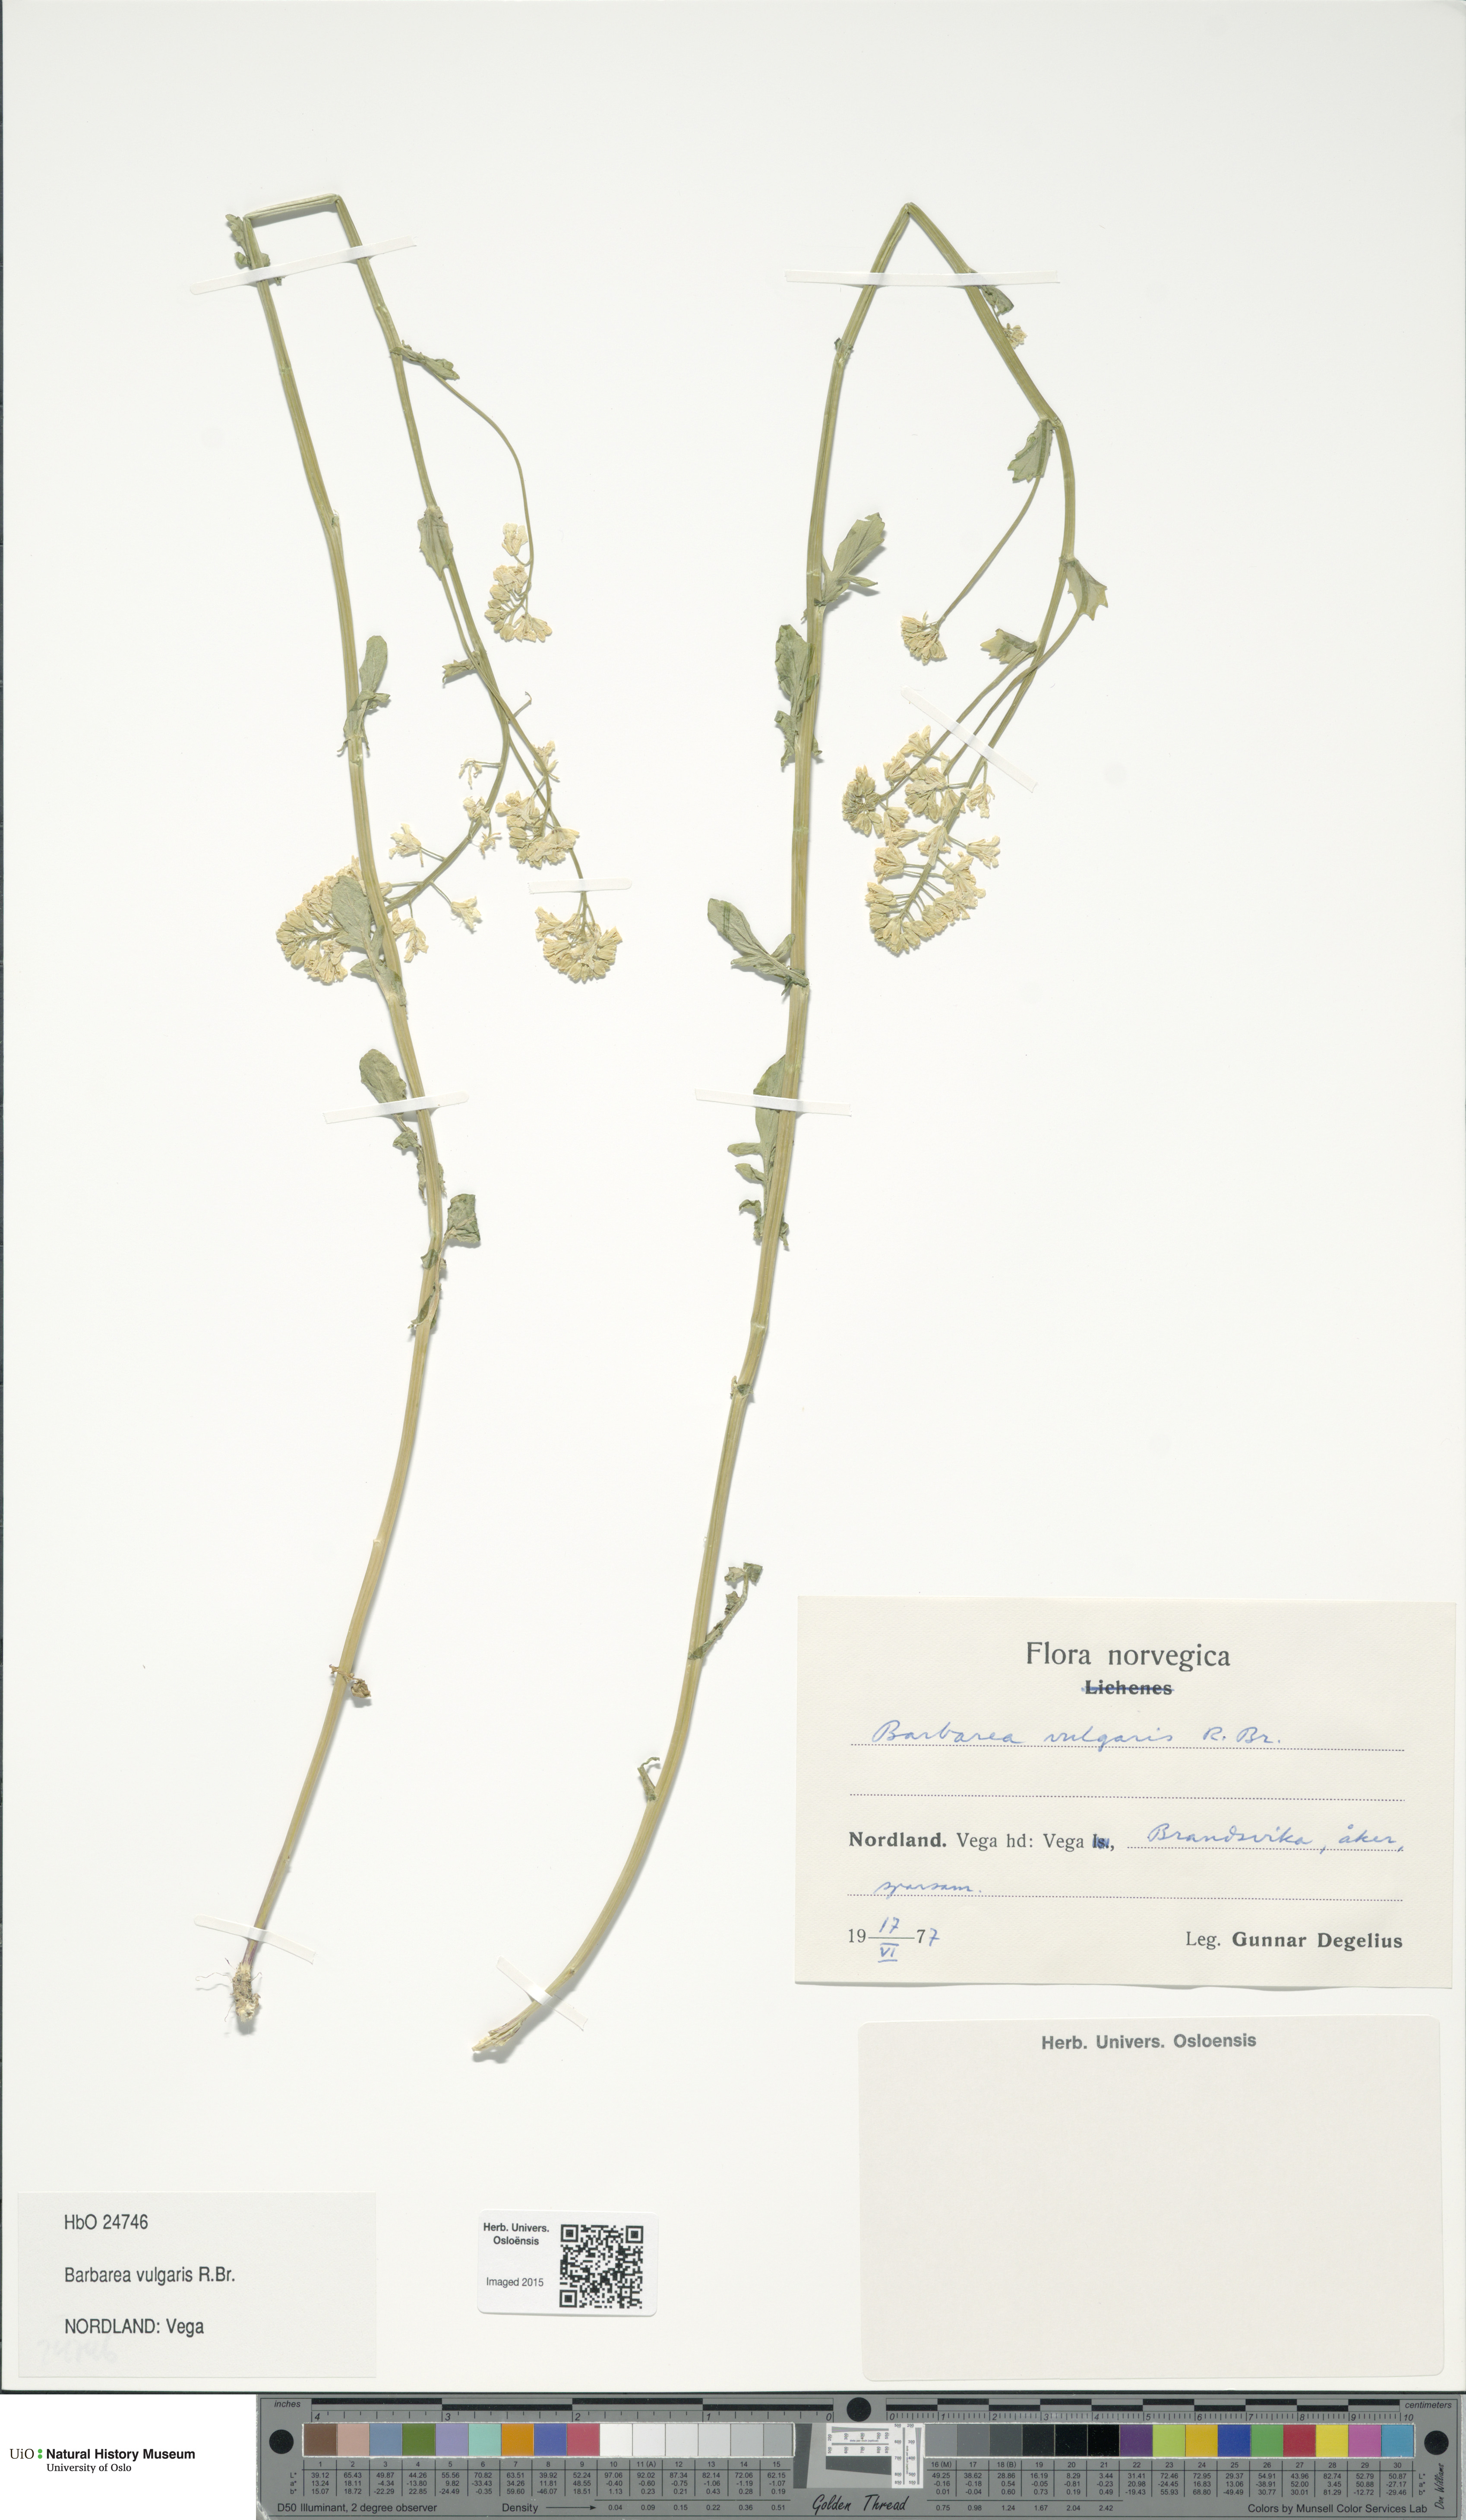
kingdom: Plantae
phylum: Tracheophyta
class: Magnoliopsida
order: Brassicales
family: Brassicaceae
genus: Barbarea
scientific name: Barbarea vulgaris
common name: Cressy-greens
